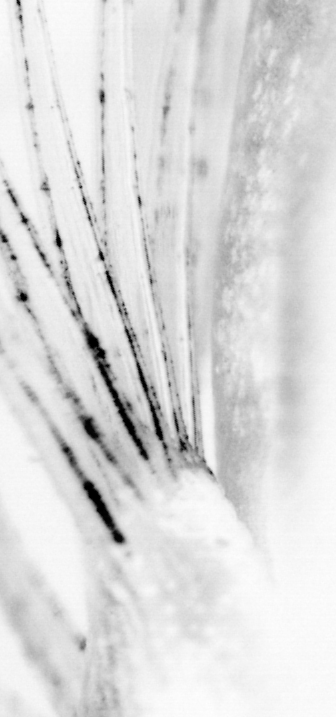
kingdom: Animalia
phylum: Chordata
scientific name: Chordata
